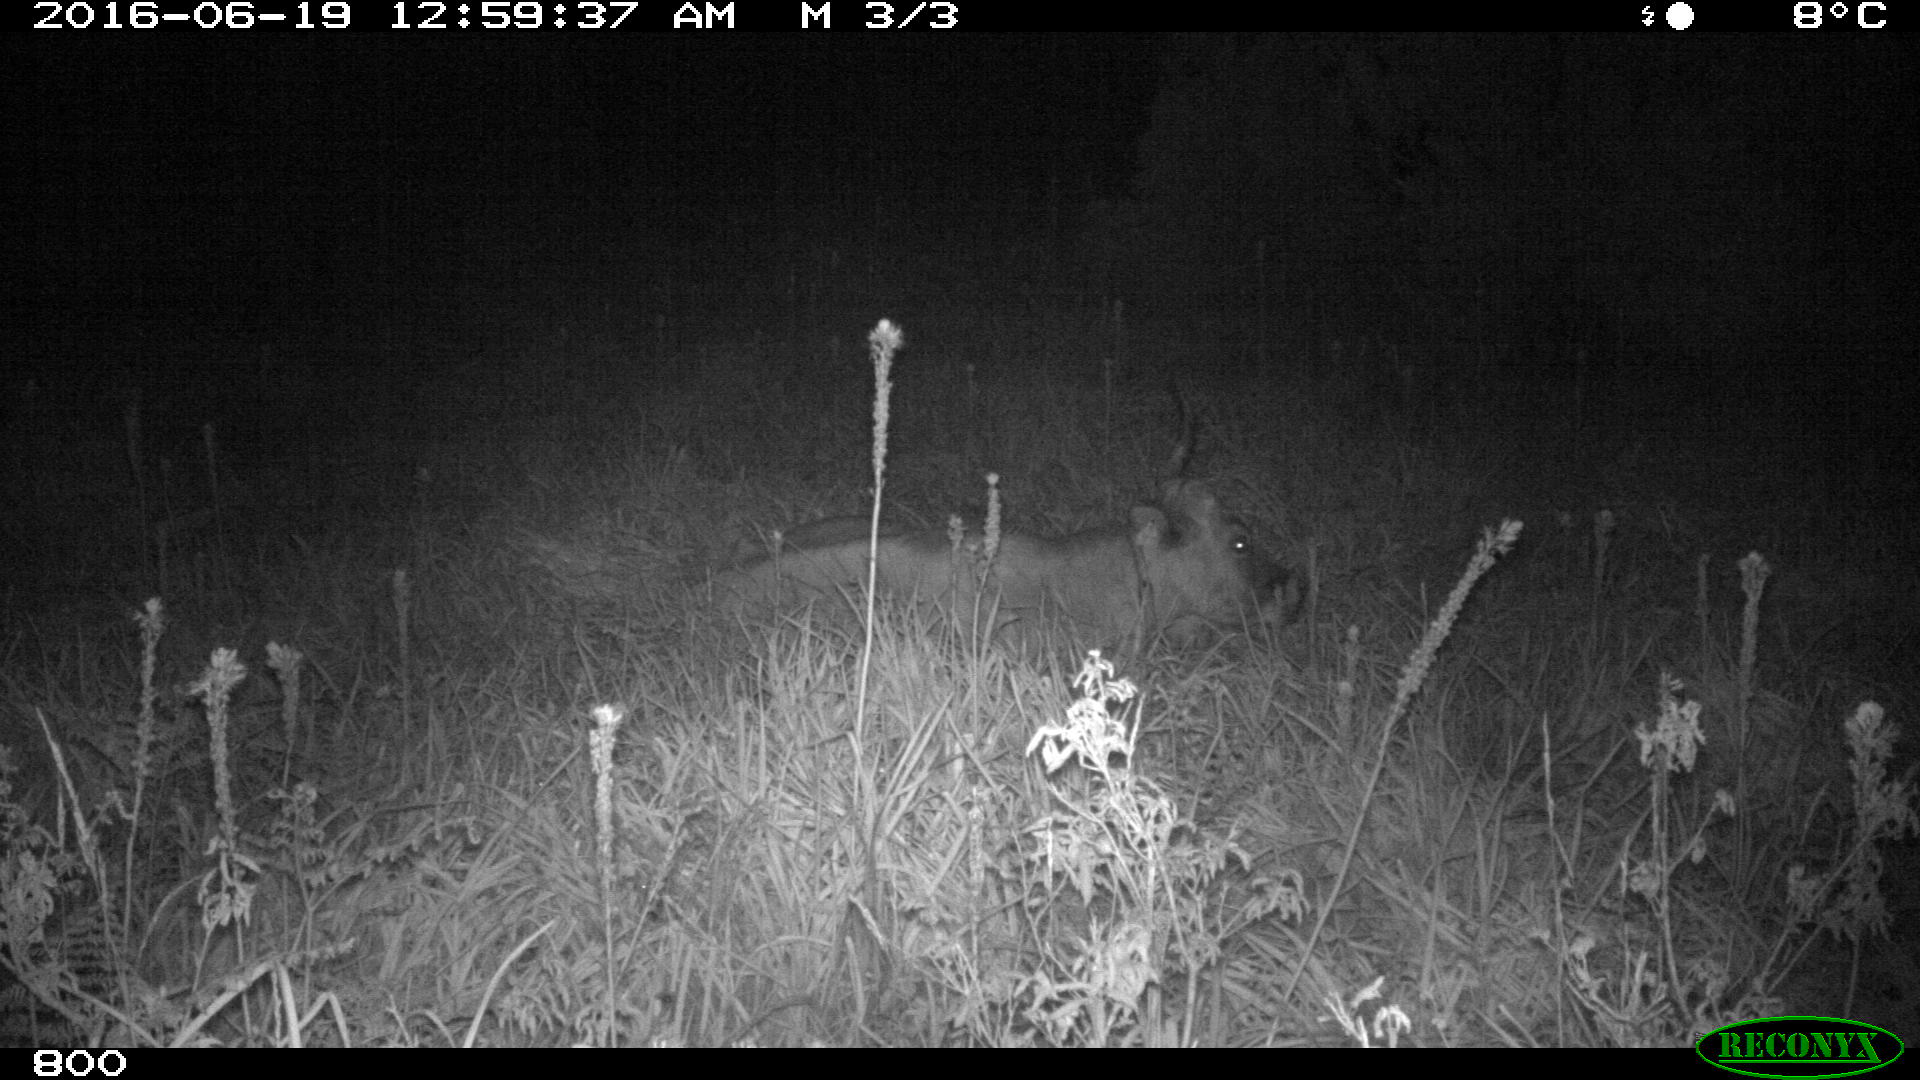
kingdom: Animalia
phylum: Chordata
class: Mammalia
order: Artiodactyla
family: Bovidae
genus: Bos
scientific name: Bos taurus
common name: Domesticated cattle
